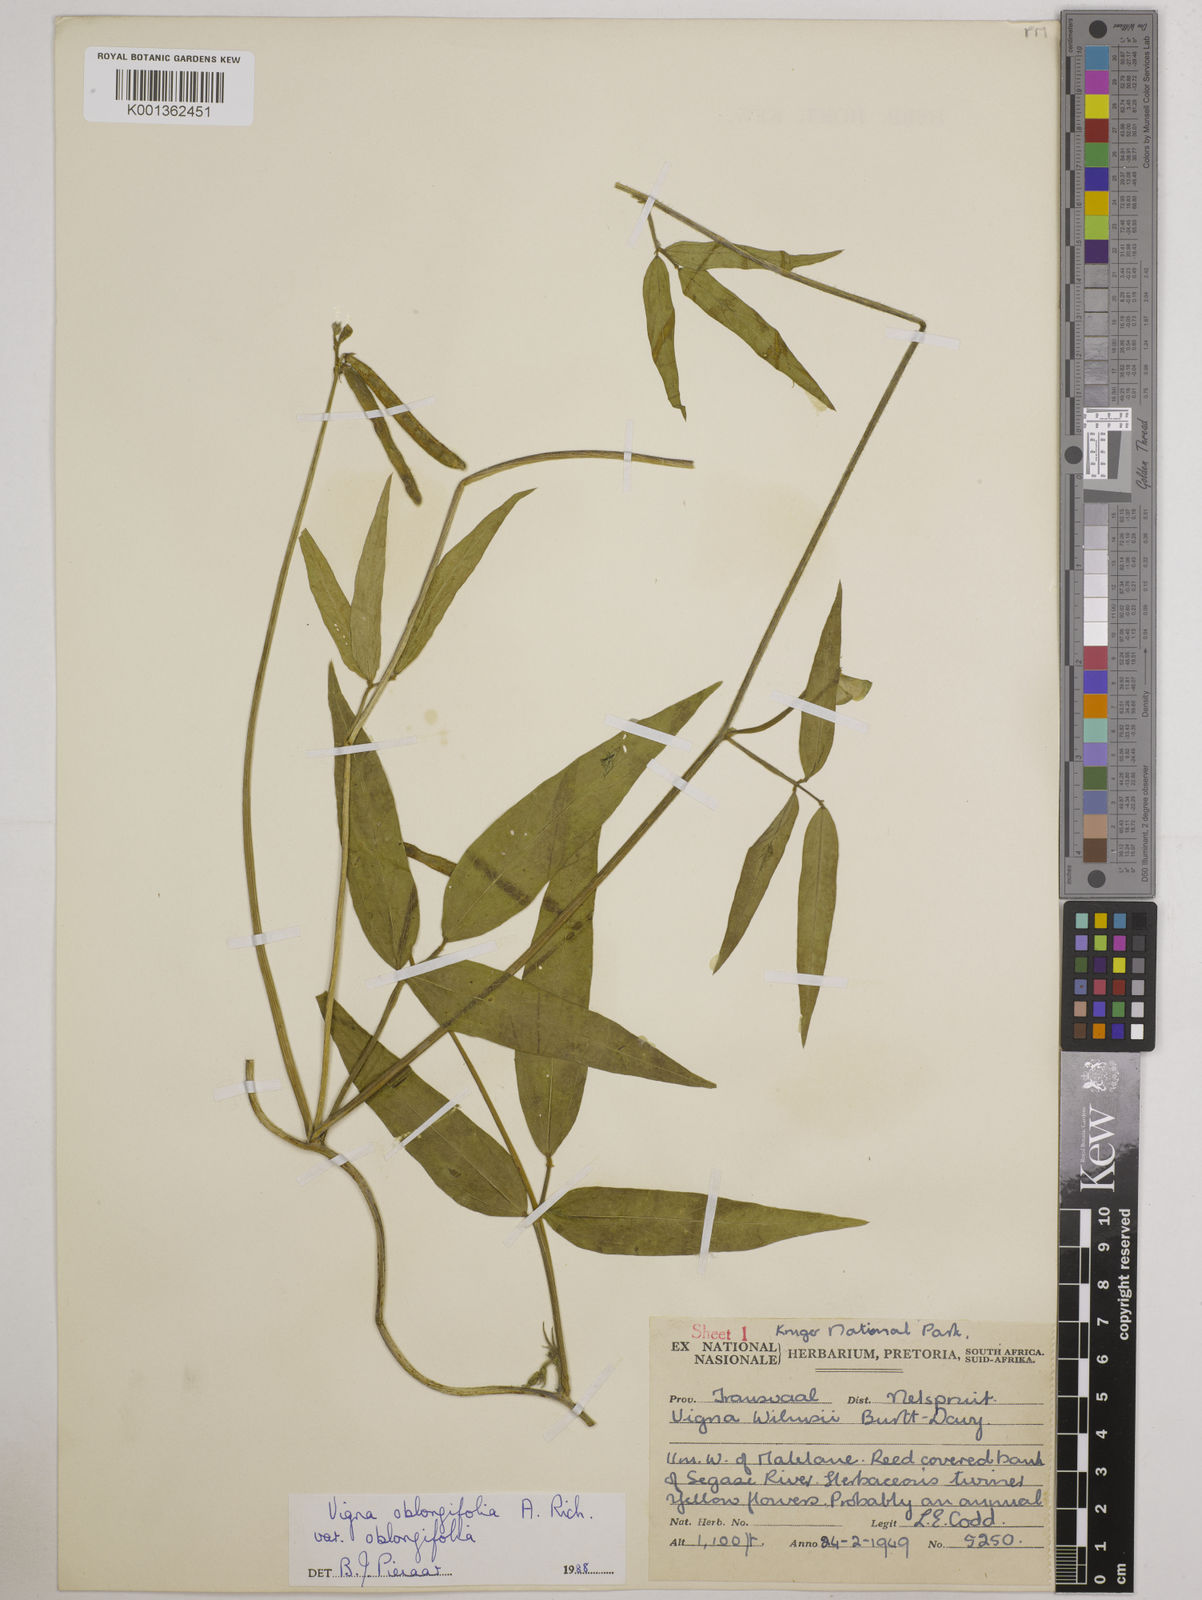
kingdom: Plantae
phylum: Tracheophyta
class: Magnoliopsida
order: Fabales
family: Fabaceae
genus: Vigna
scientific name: Vigna oblongifolia
